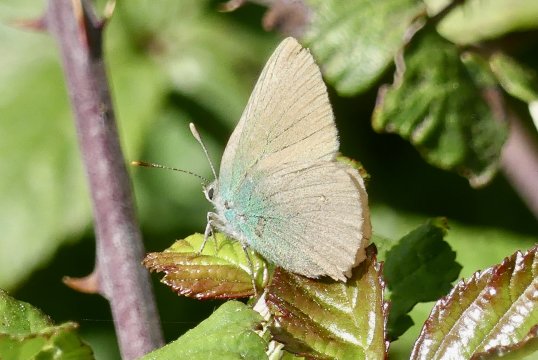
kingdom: Animalia
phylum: Arthropoda
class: Insecta
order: Lepidoptera
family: Lycaenidae
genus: Callophrys
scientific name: Callophrys rubi
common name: Green Hairstreak
